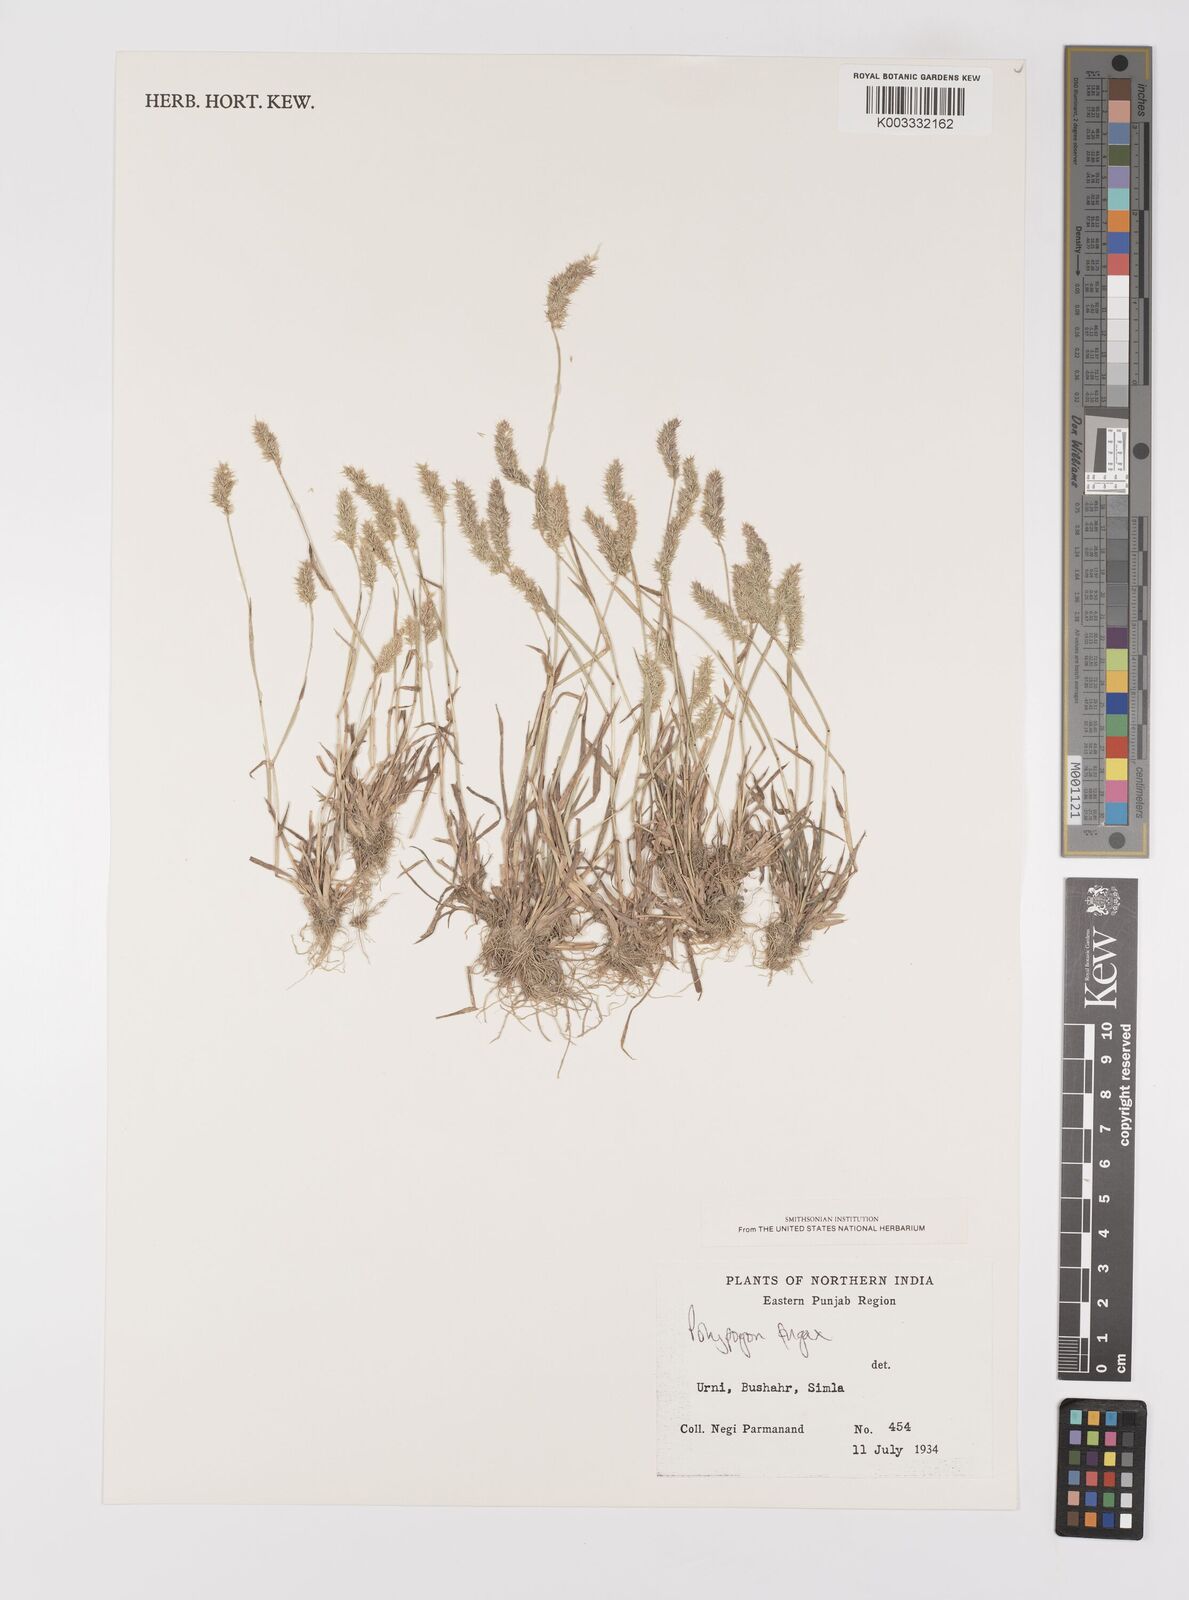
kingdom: Plantae
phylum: Tracheophyta
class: Liliopsida
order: Poales
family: Poaceae
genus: Polypogon
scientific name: Polypogon fugax
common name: Asia minor bluegrass
